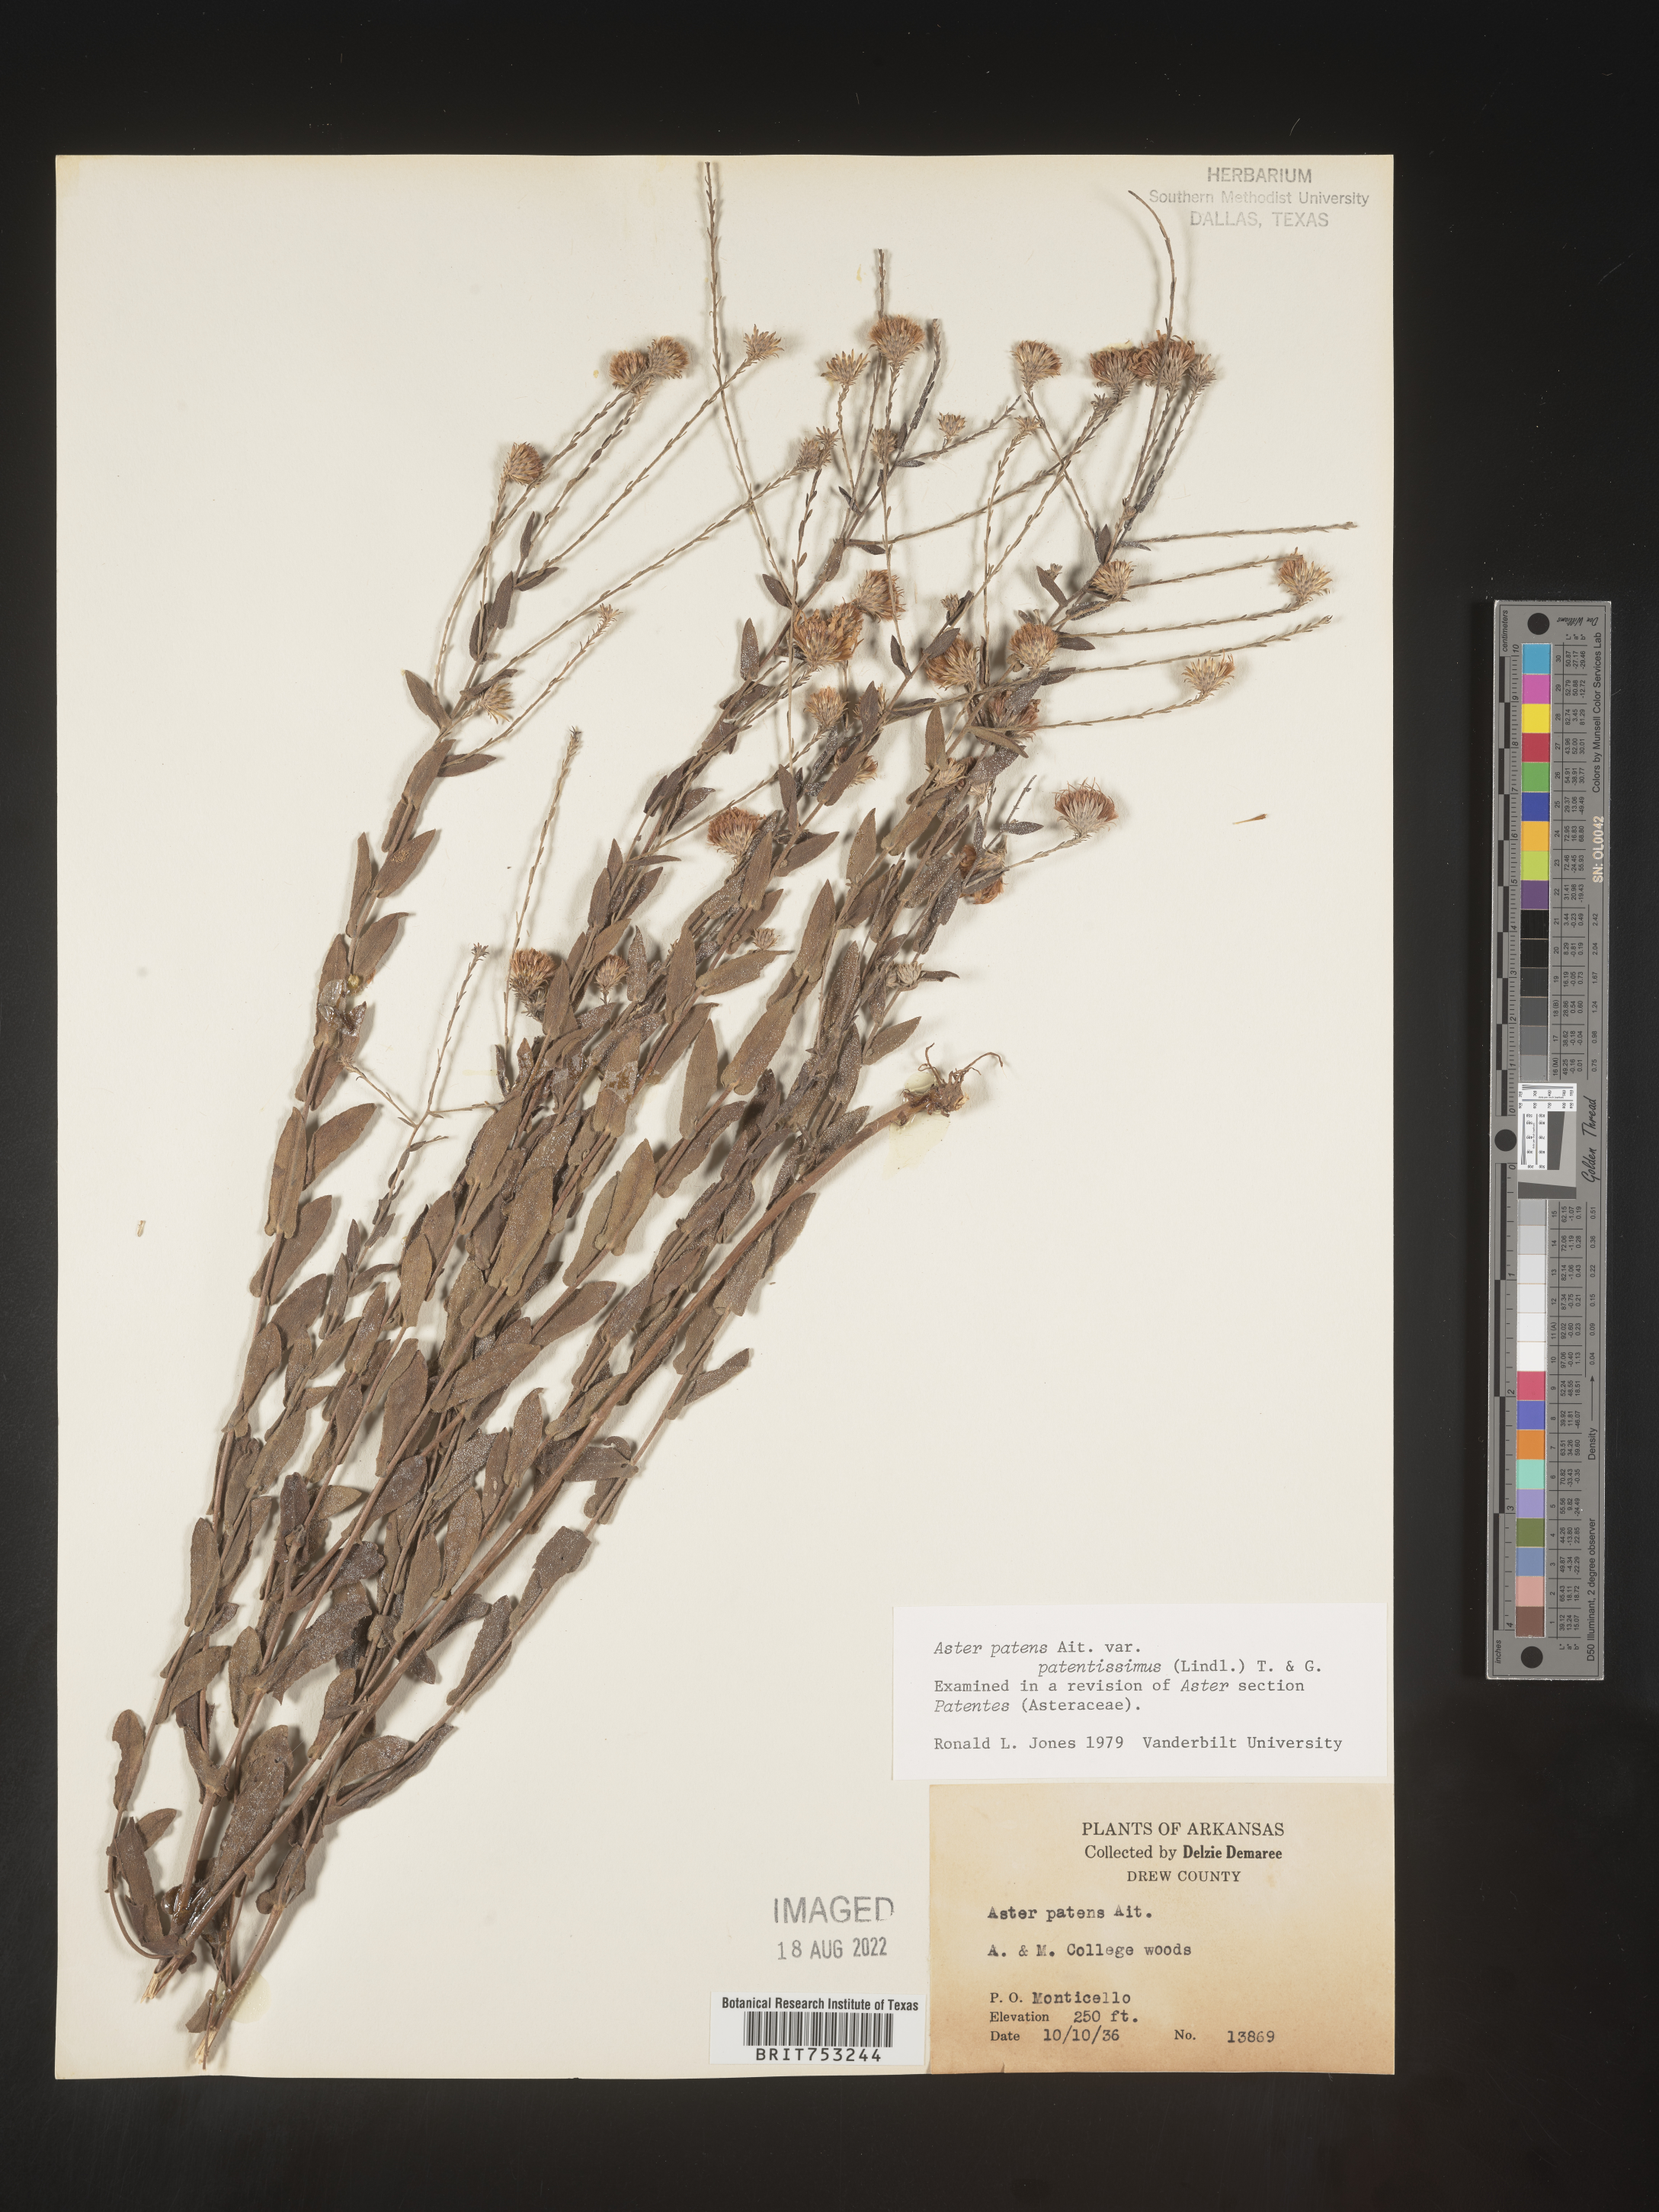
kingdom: Plantae
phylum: Tracheophyta
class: Magnoliopsida
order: Asterales
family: Asteraceae
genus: Symphyotrichum
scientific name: Symphyotrichum patens
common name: Late purple aster
